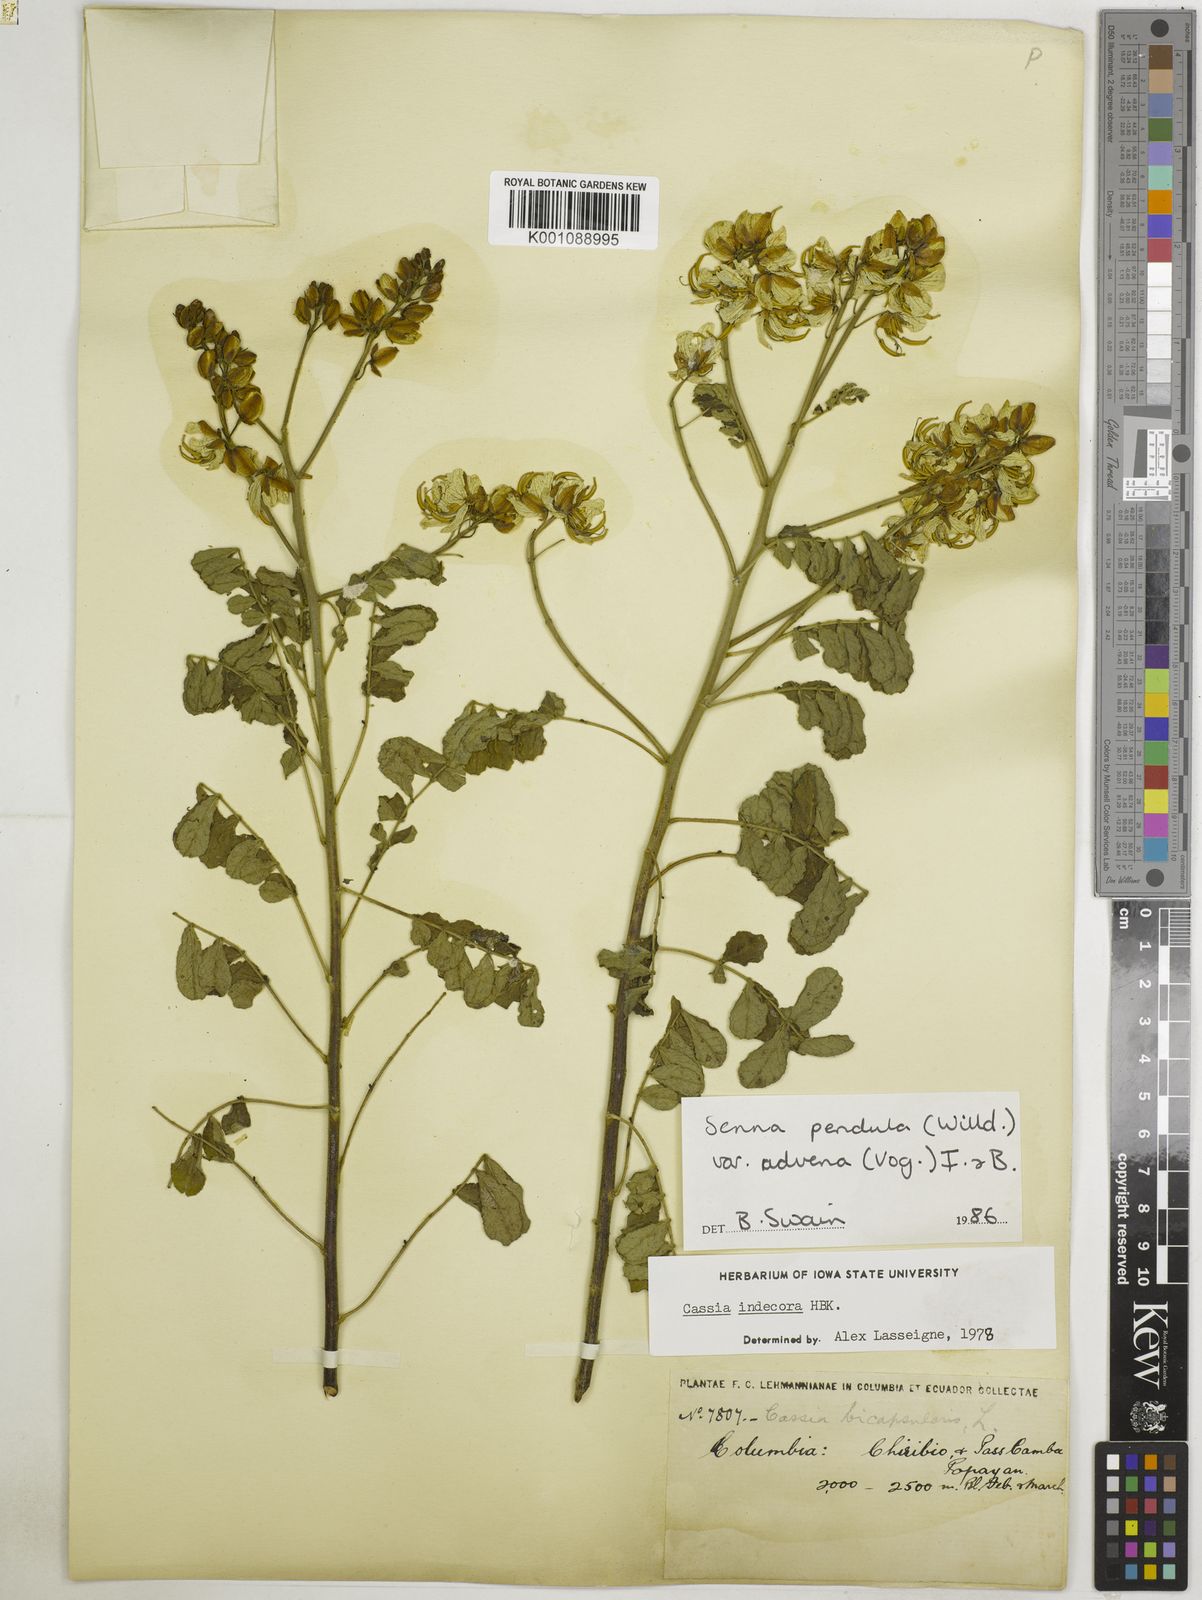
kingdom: Plantae
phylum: Tracheophyta
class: Magnoliopsida
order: Fabales
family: Fabaceae
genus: Senna
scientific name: Senna pendula
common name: Easter cassia
